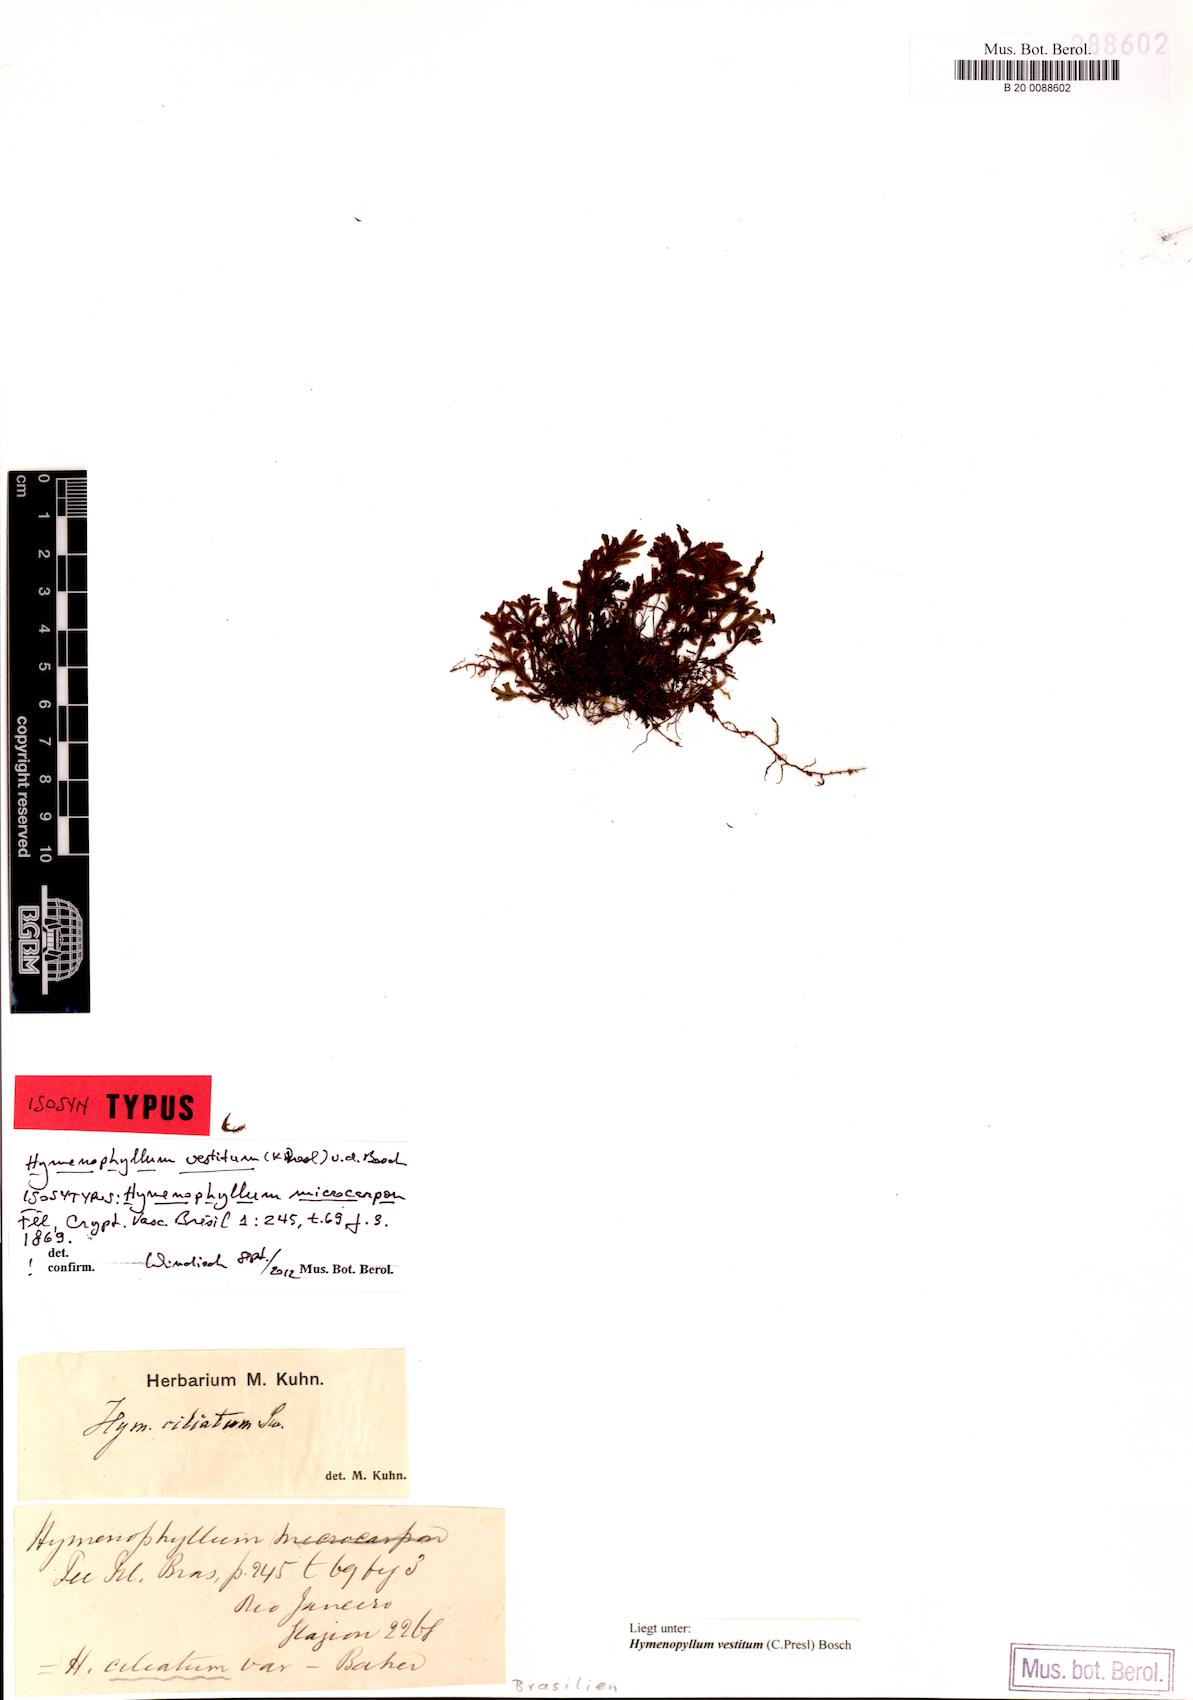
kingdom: Plantae
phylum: Tracheophyta
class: Polypodiopsida
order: Hymenophyllales
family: Hymenophyllaceae
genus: Hymenophyllum
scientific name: Hymenophyllum vestitum
